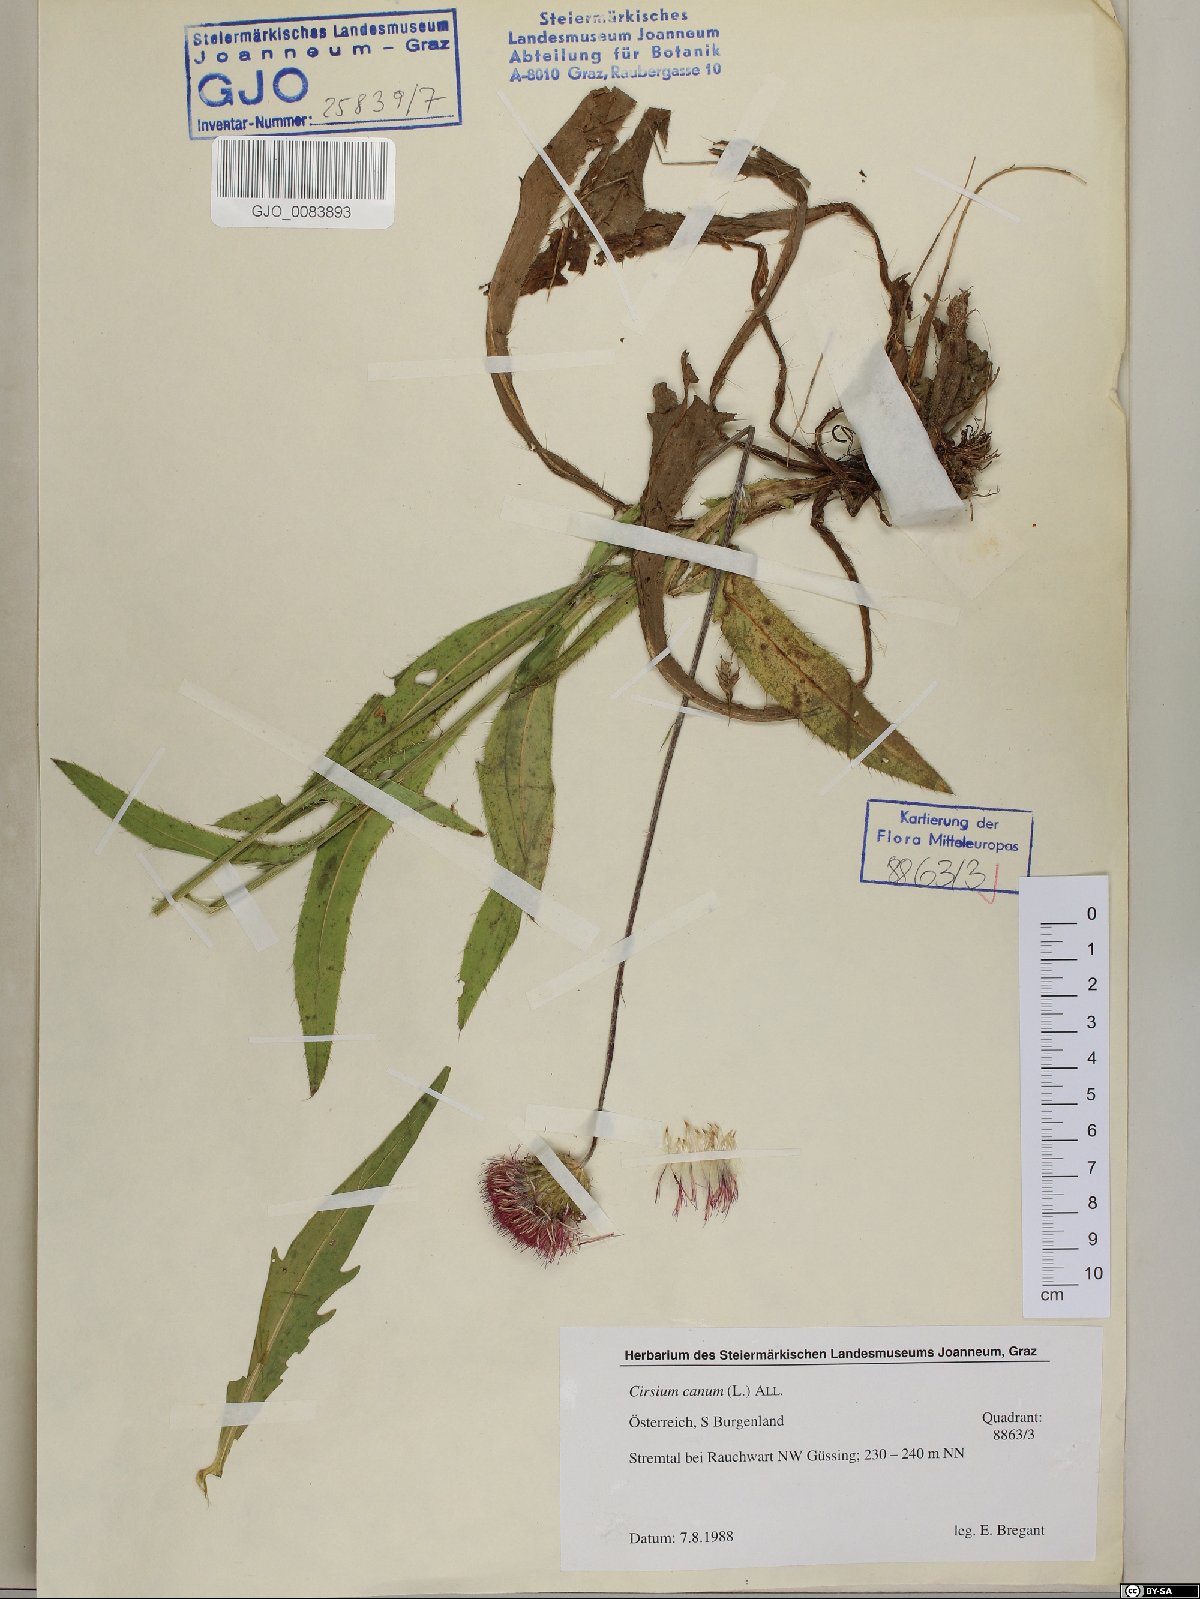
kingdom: Plantae
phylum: Tracheophyta
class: Magnoliopsida
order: Asterales
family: Asteraceae
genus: Cirsium
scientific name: Cirsium canum
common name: Queen anne's thistle
